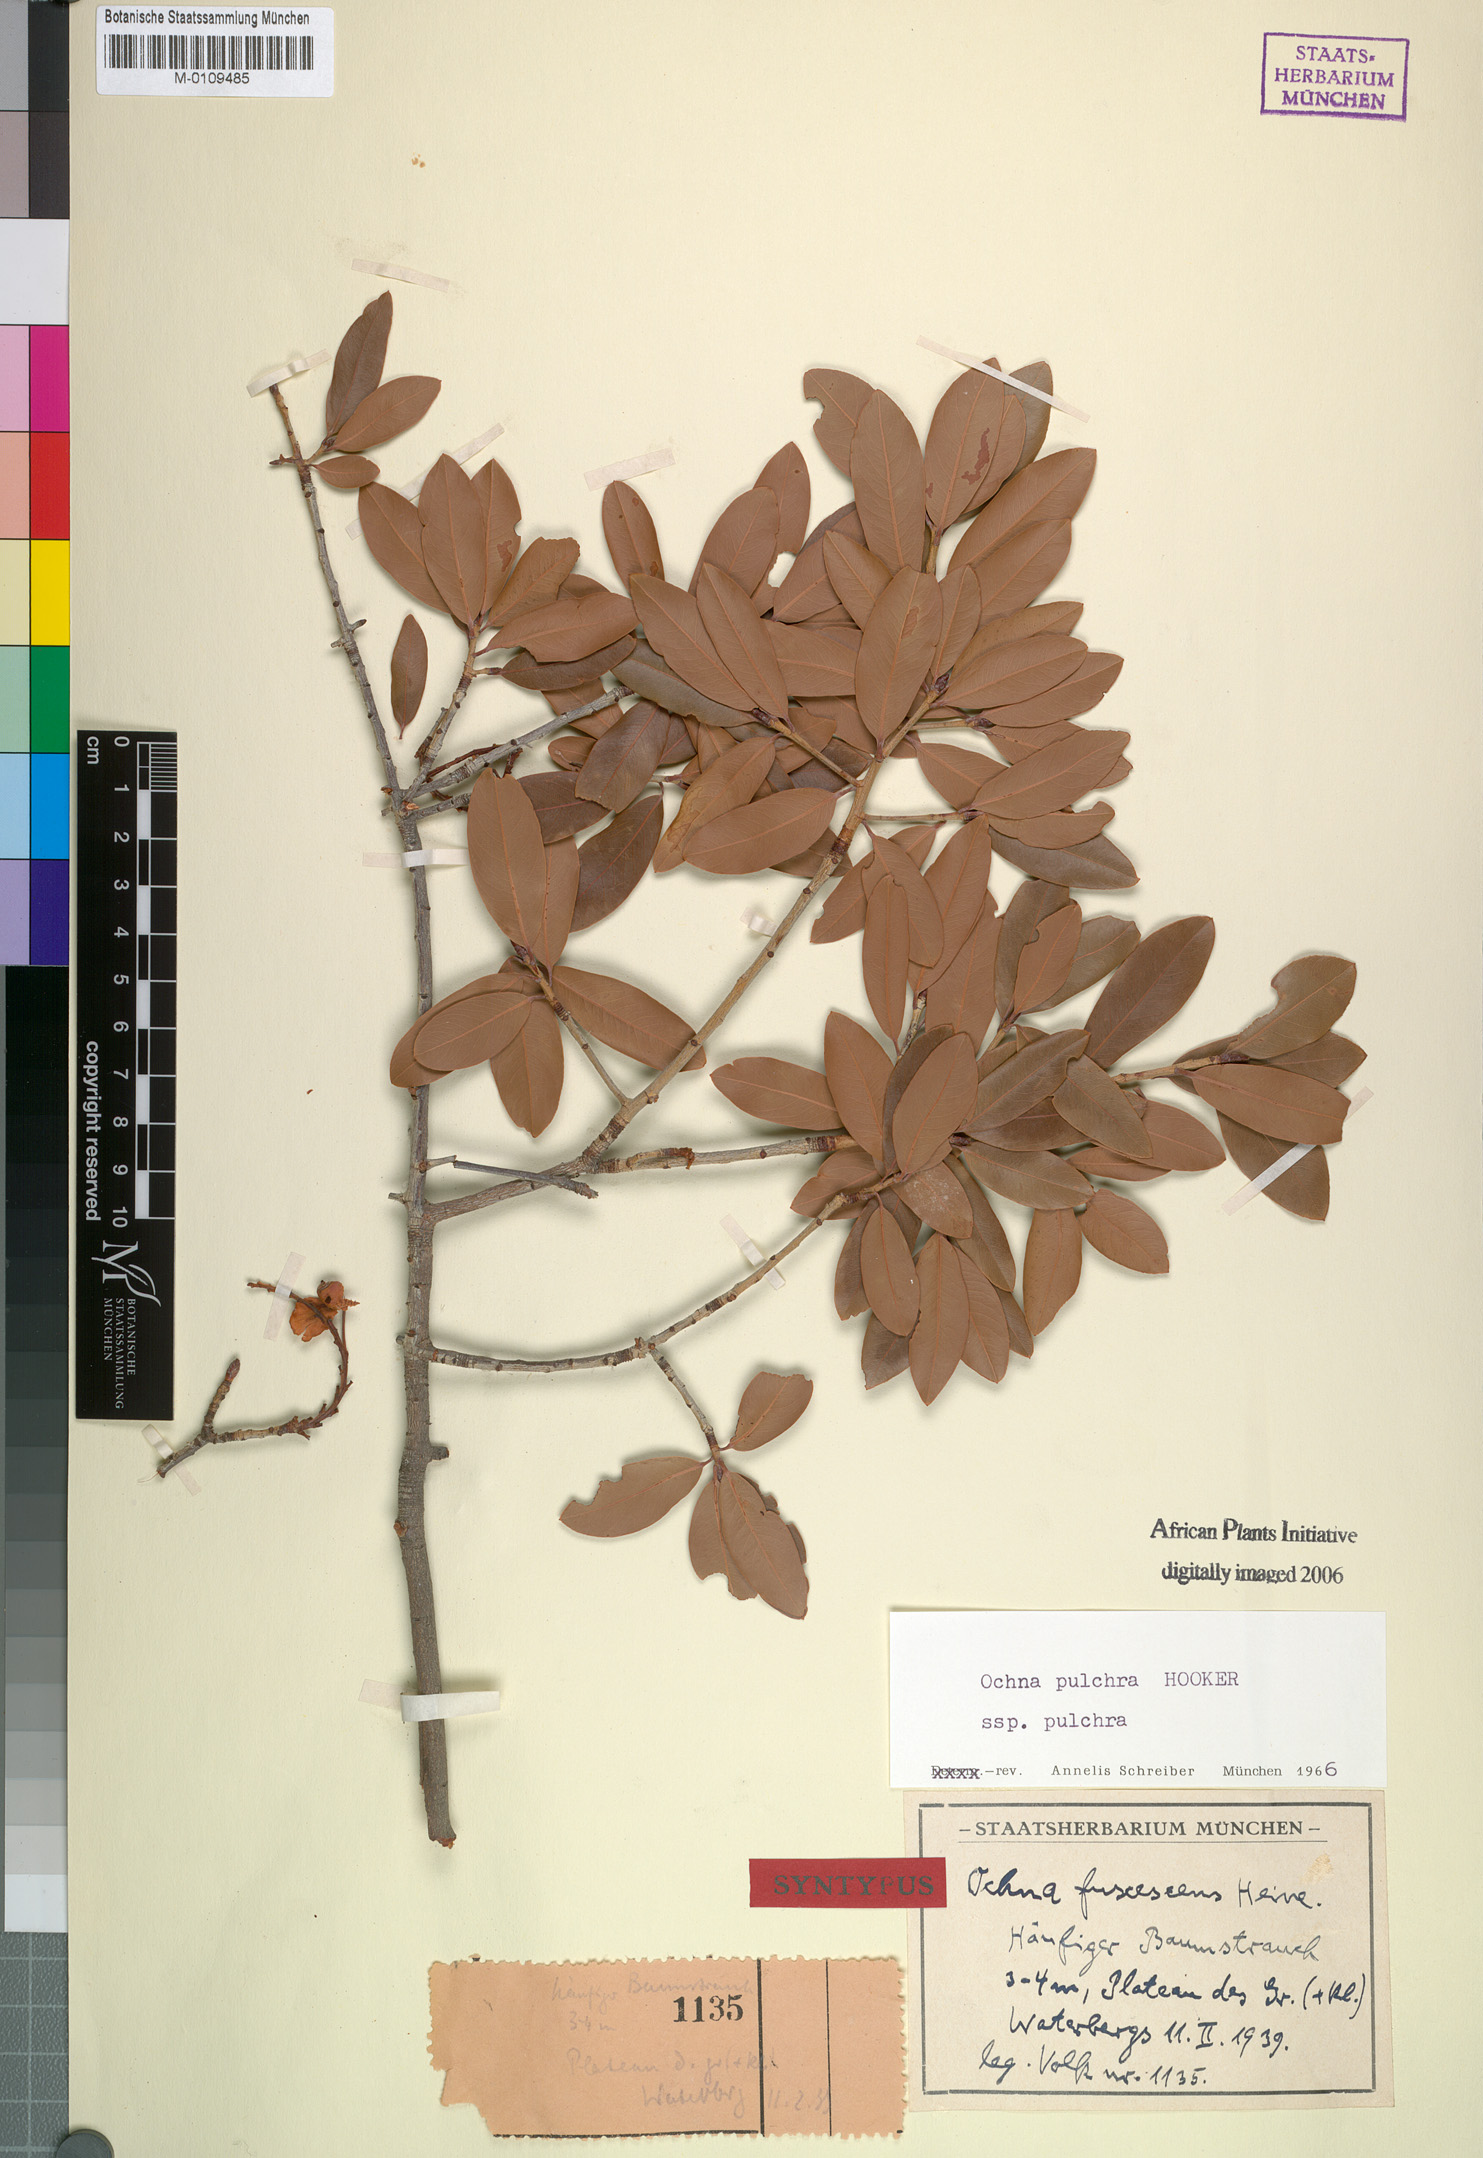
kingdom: Plantae
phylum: Tracheophyta
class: Magnoliopsida
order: Malpighiales
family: Ochnaceae
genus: Ochna
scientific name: Ochna pulchra
